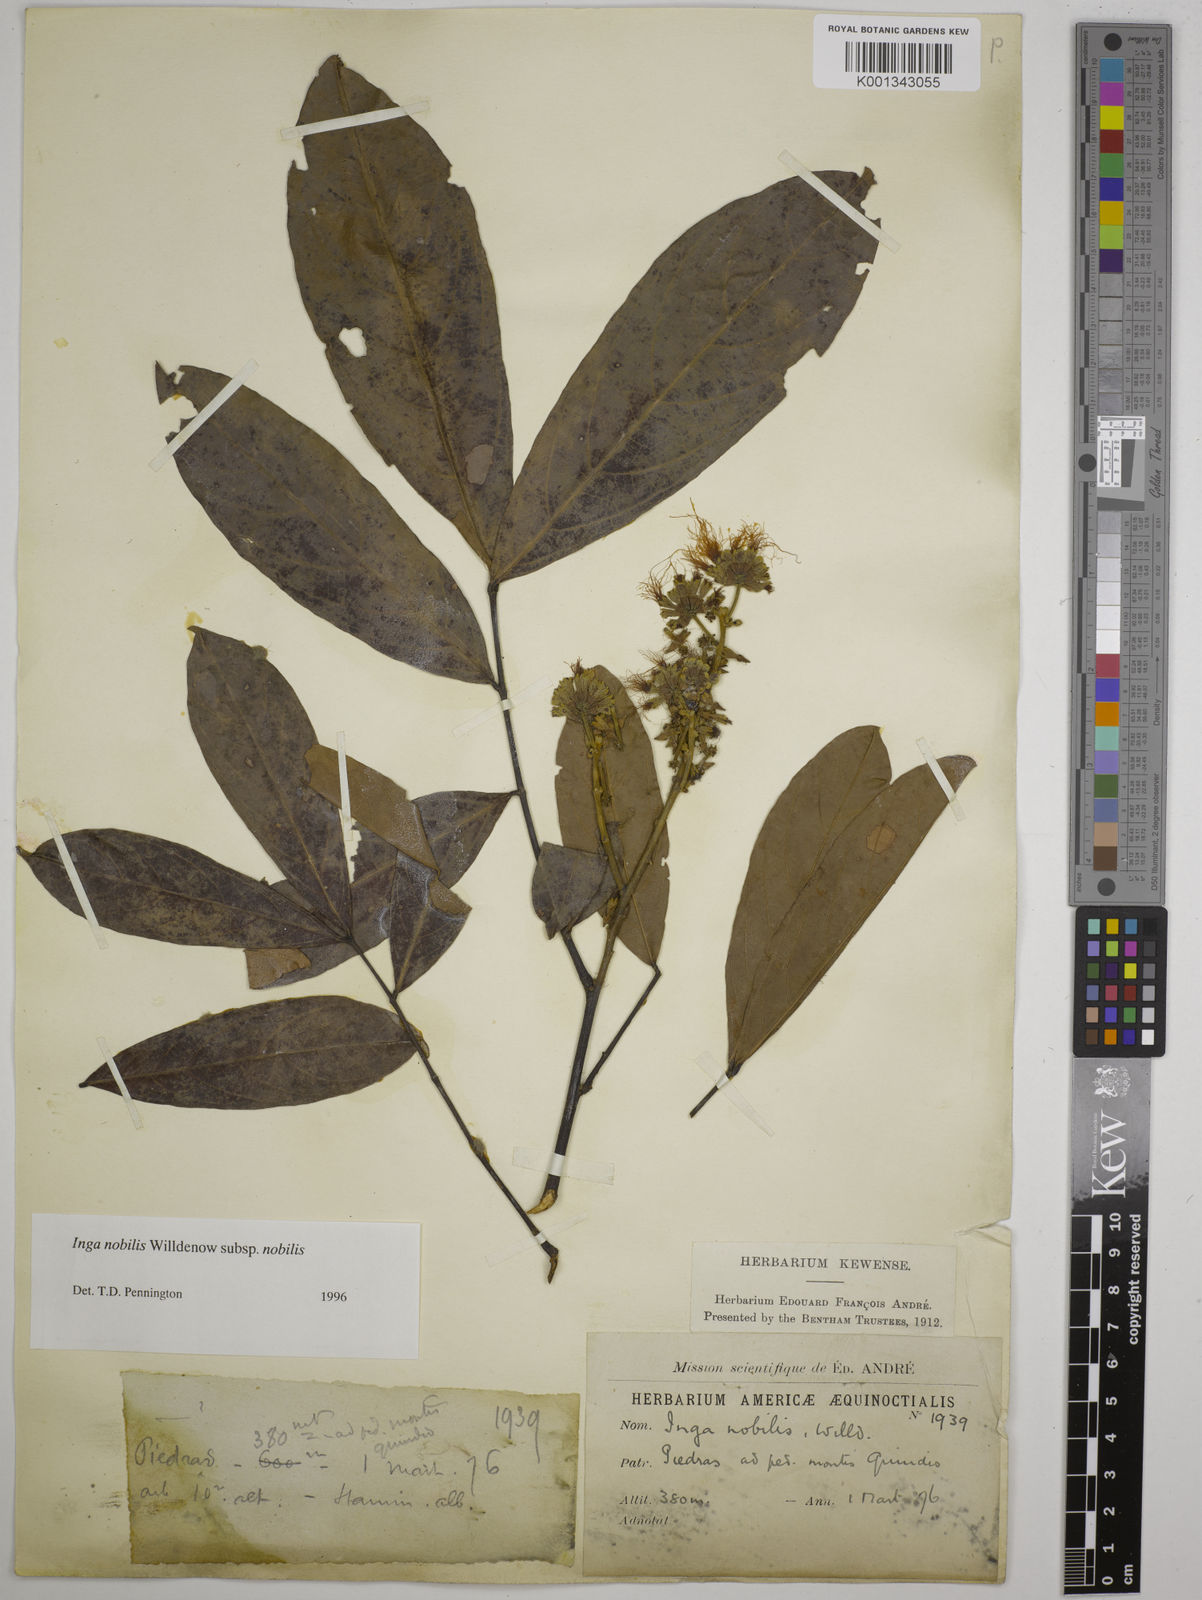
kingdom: Plantae
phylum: Tracheophyta
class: Magnoliopsida
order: Fabales
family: Fabaceae
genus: Inga
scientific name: Inga nobilis
